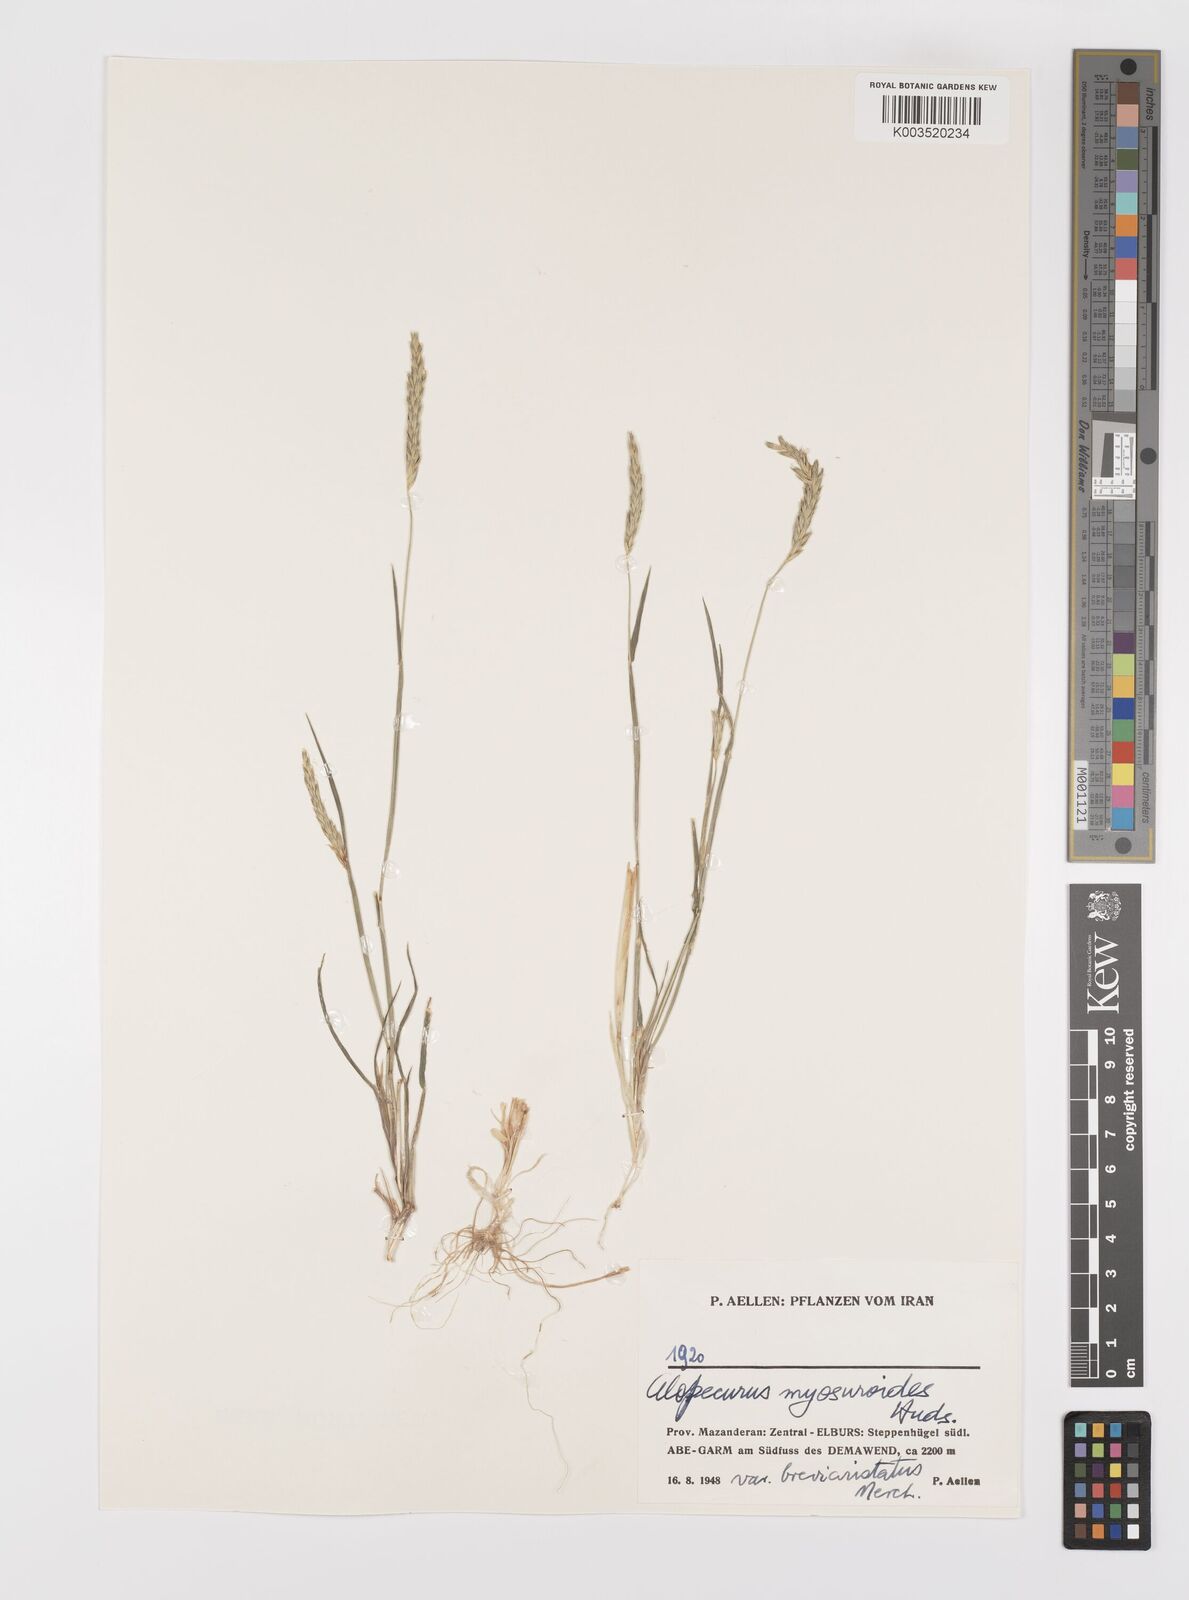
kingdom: Plantae
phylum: Tracheophyta
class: Liliopsida
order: Poales
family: Poaceae
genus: Alopecurus
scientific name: Alopecurus myosuroides
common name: Black-grass
